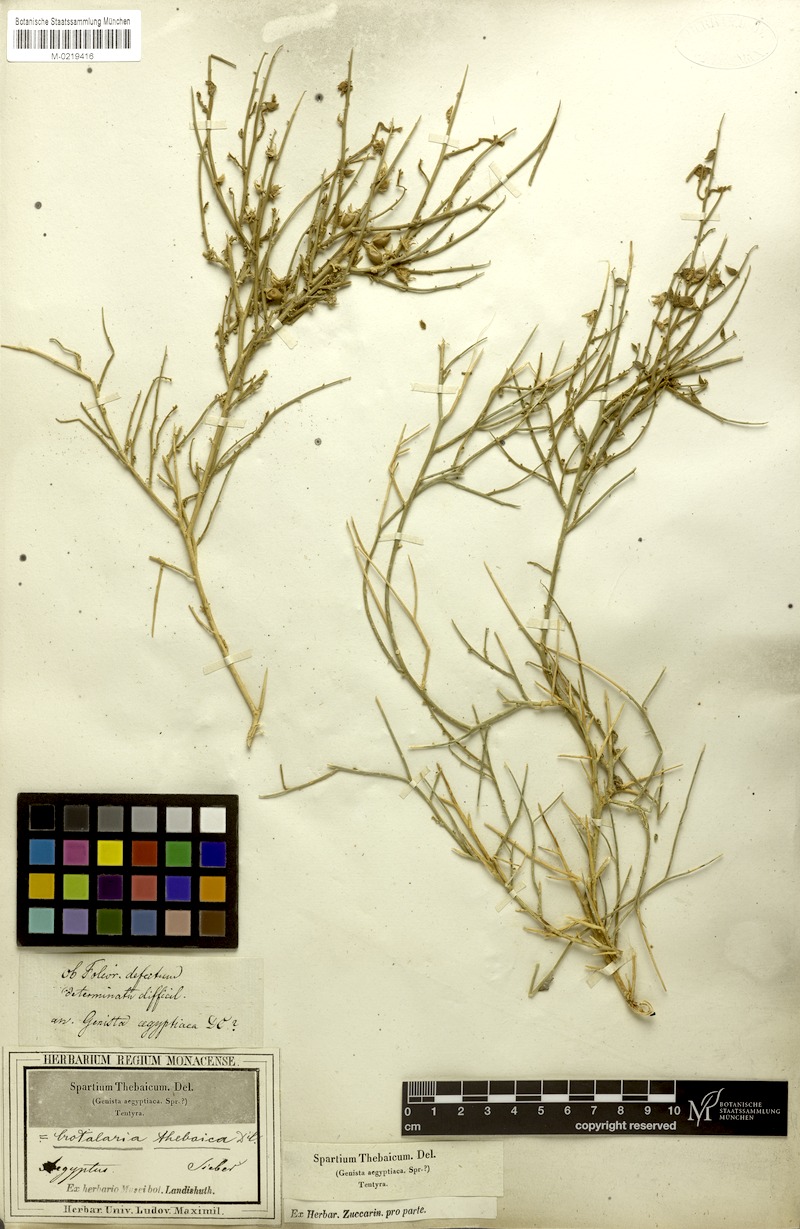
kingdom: Plantae
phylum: Tracheophyta
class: Magnoliopsida
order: Fabales
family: Fabaceae
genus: Crotalaria
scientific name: Crotalaria thebaica
